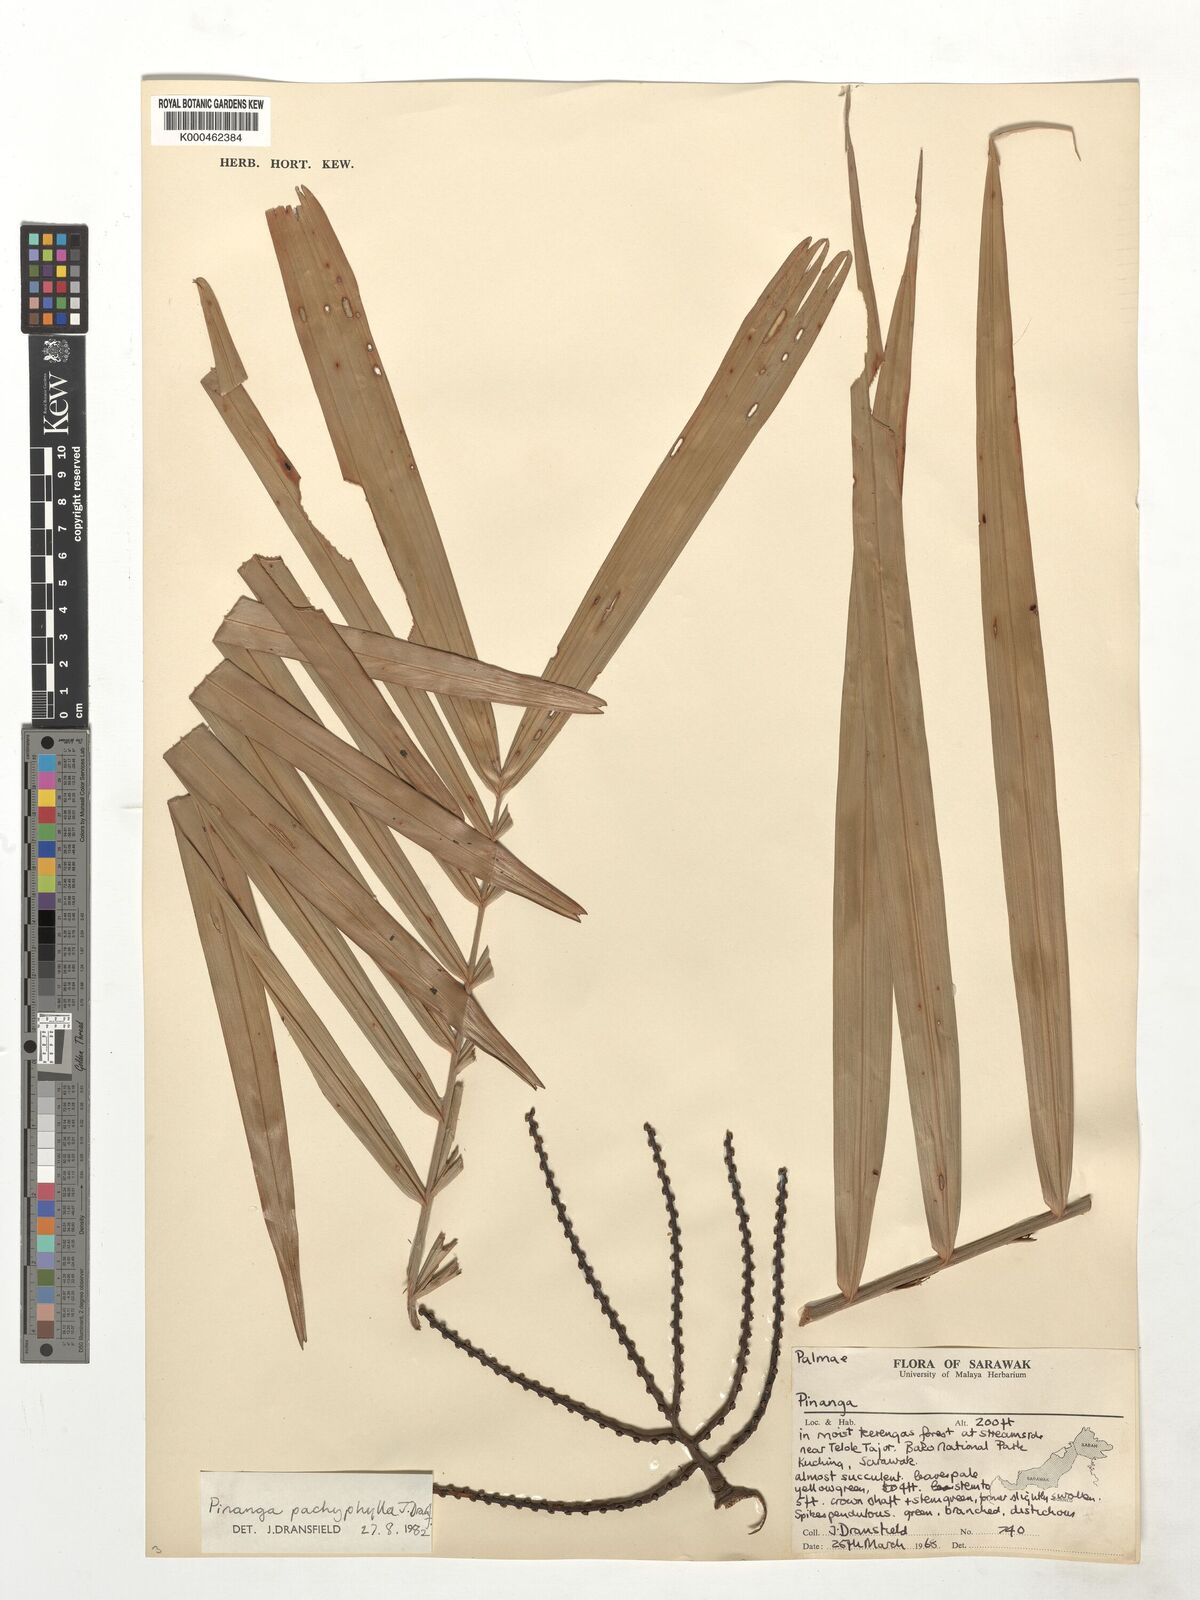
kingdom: Plantae
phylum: Tracheophyta
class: Liliopsida
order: Arecales
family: Arecaceae
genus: Pinanga
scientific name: Pinanga pachyphylla
